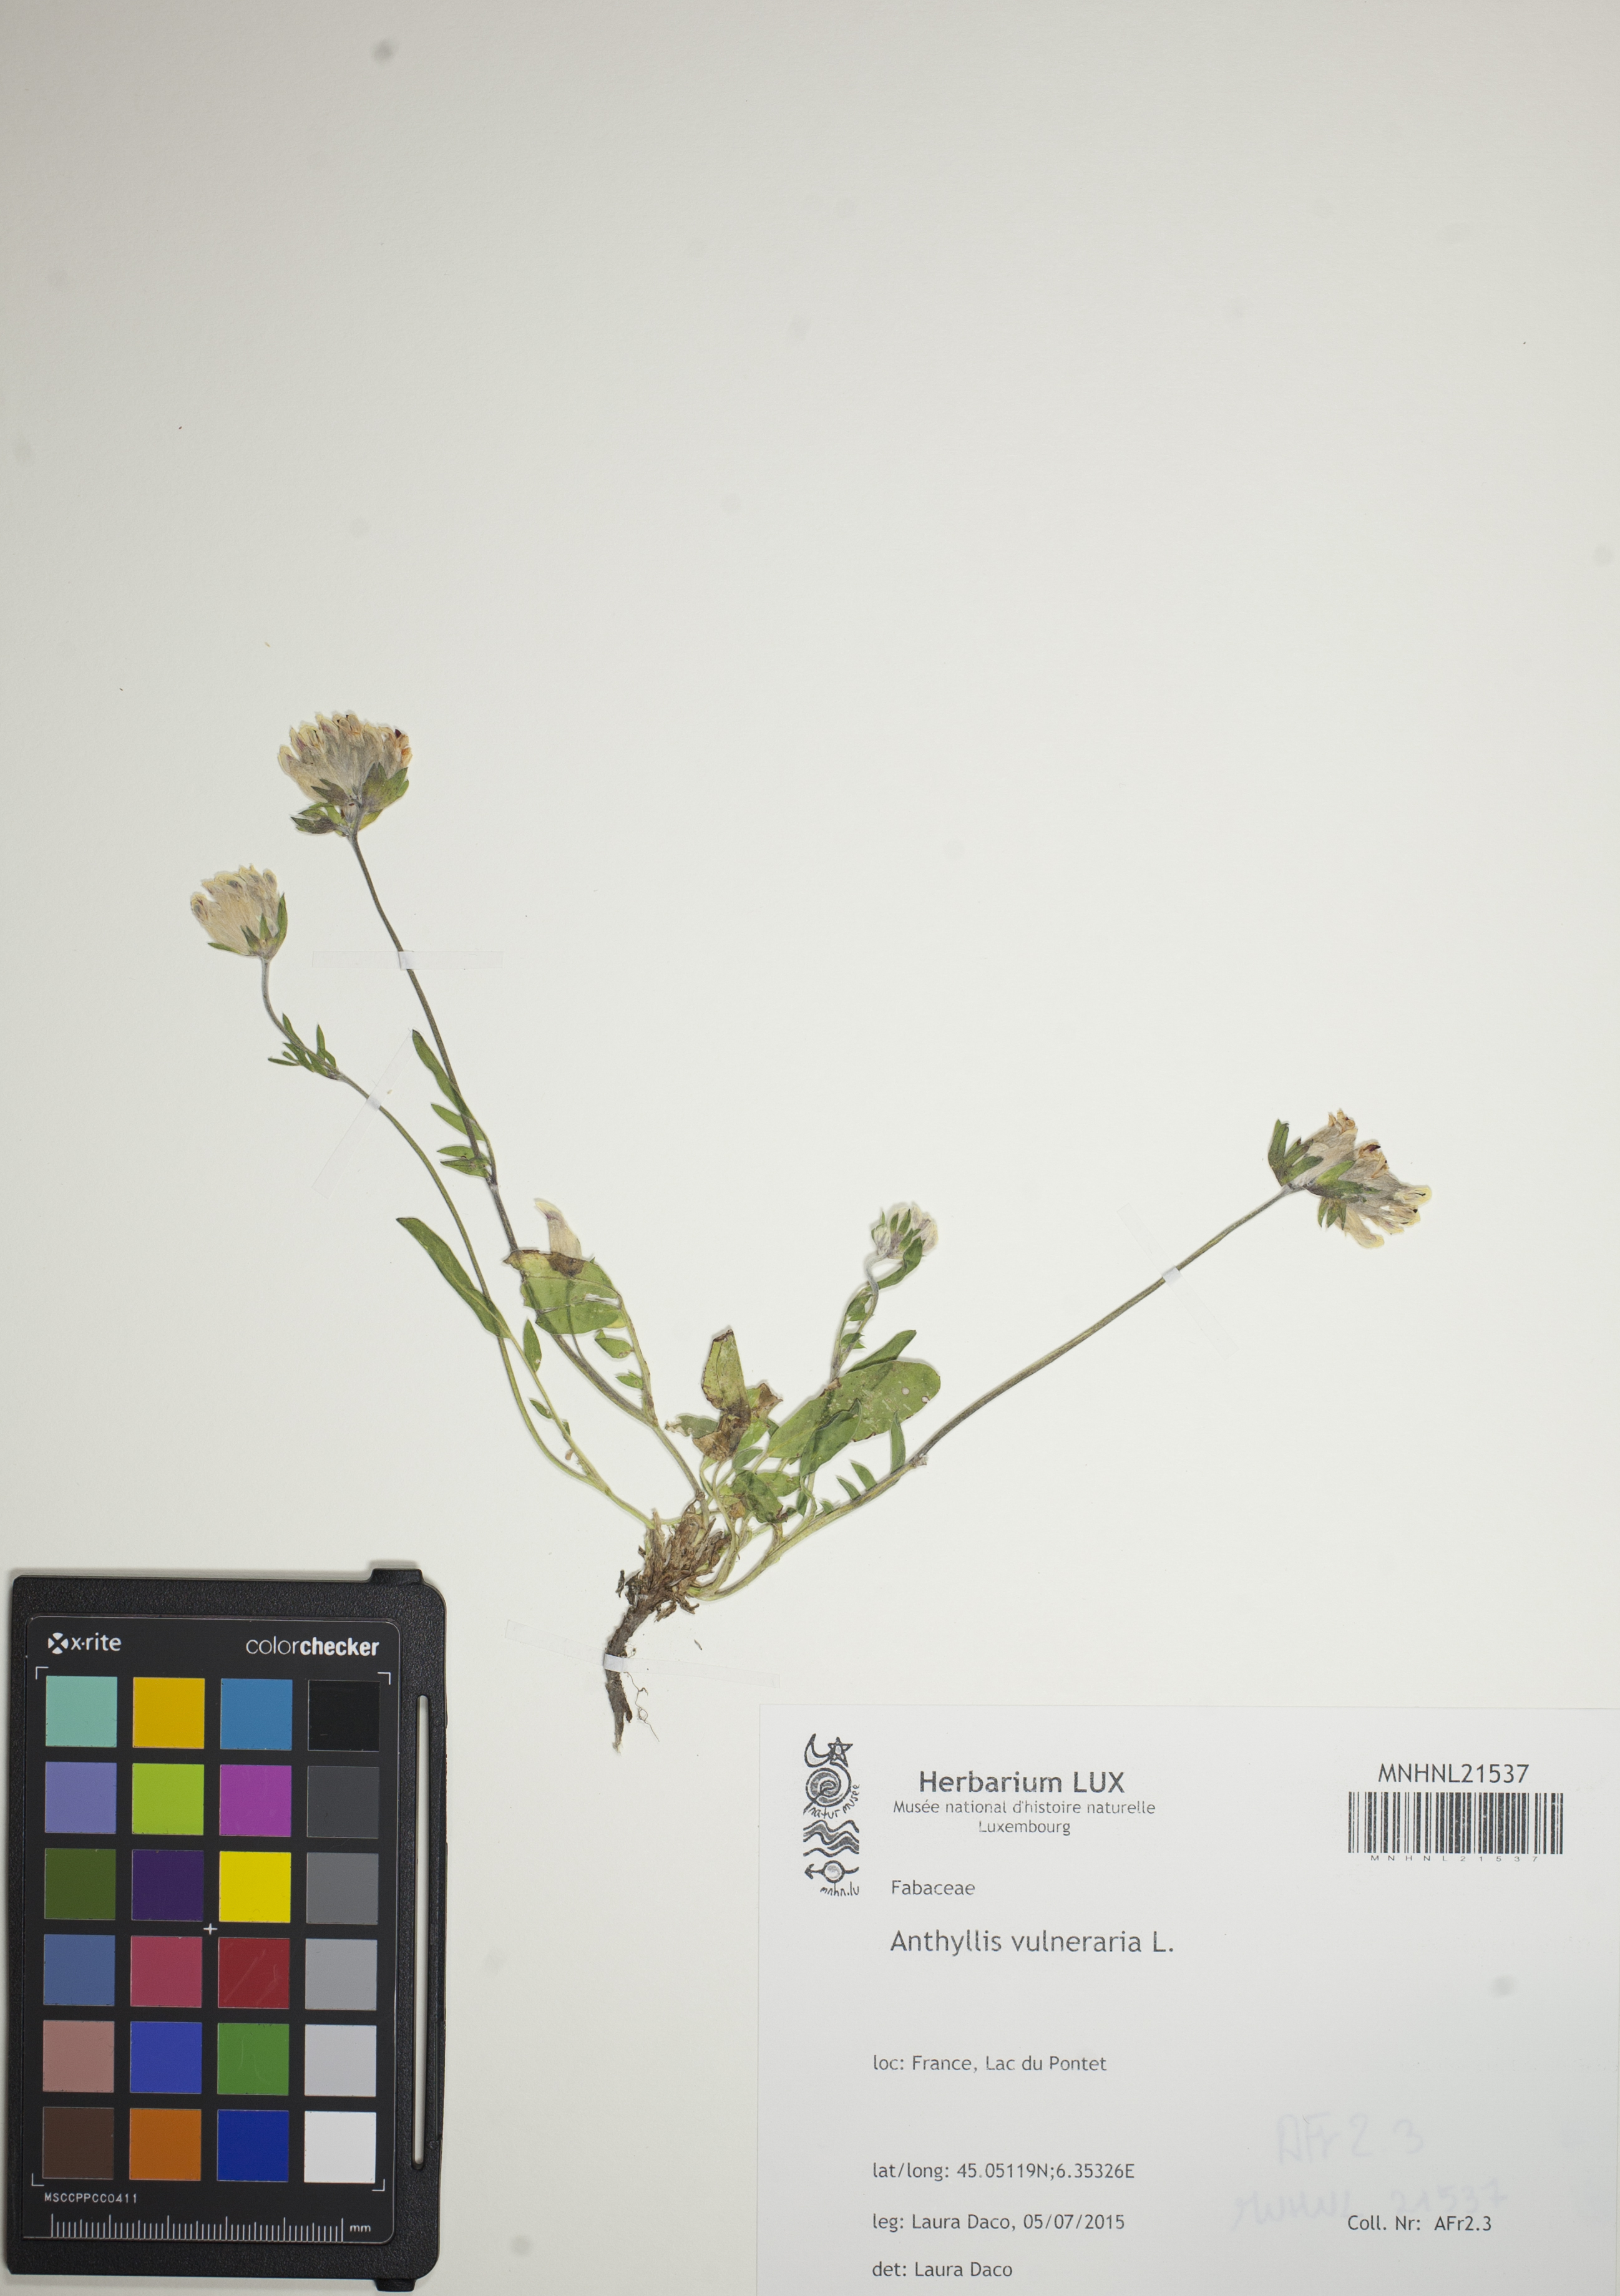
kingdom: Plantae
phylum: Tracheophyta
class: Magnoliopsida
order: Fabales
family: Fabaceae
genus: Anthyllis
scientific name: Anthyllis vulneraria
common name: Kidney vetch
